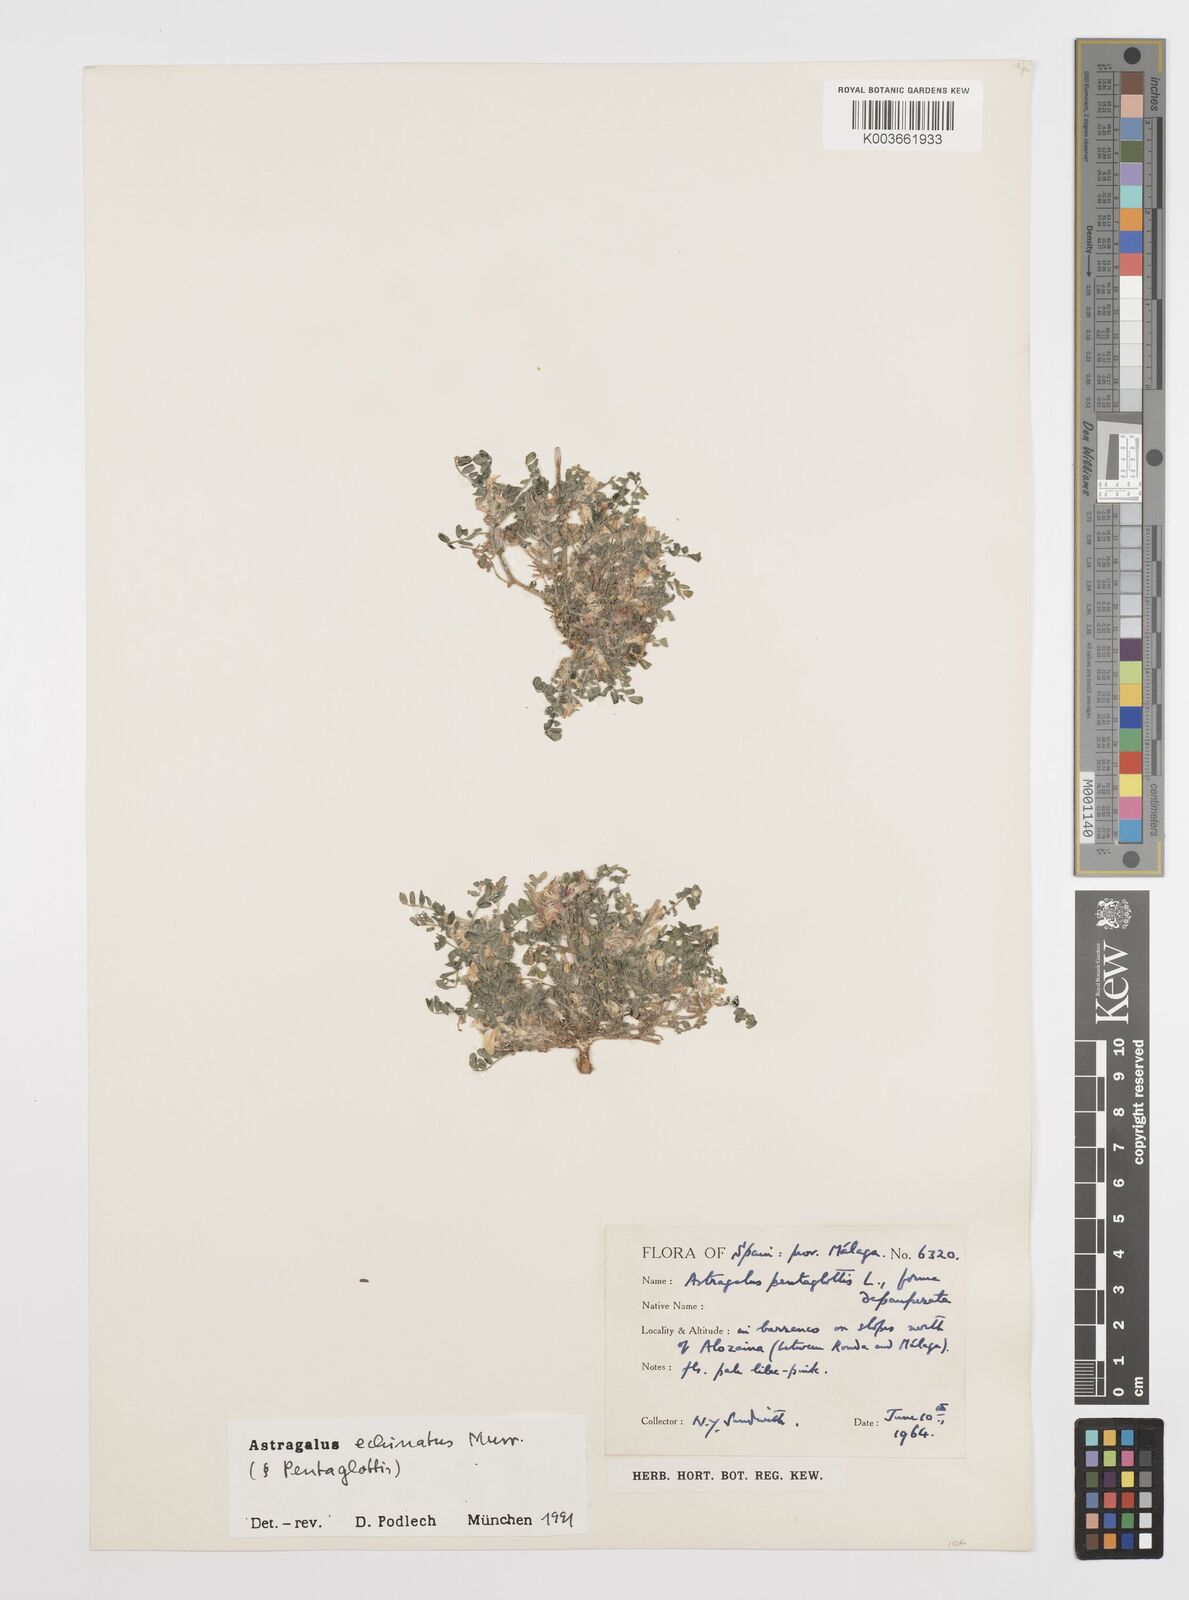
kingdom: Plantae
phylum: Tracheophyta
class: Magnoliopsida
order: Fabales
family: Fabaceae
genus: Astragalus
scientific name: Astragalus echinatus
